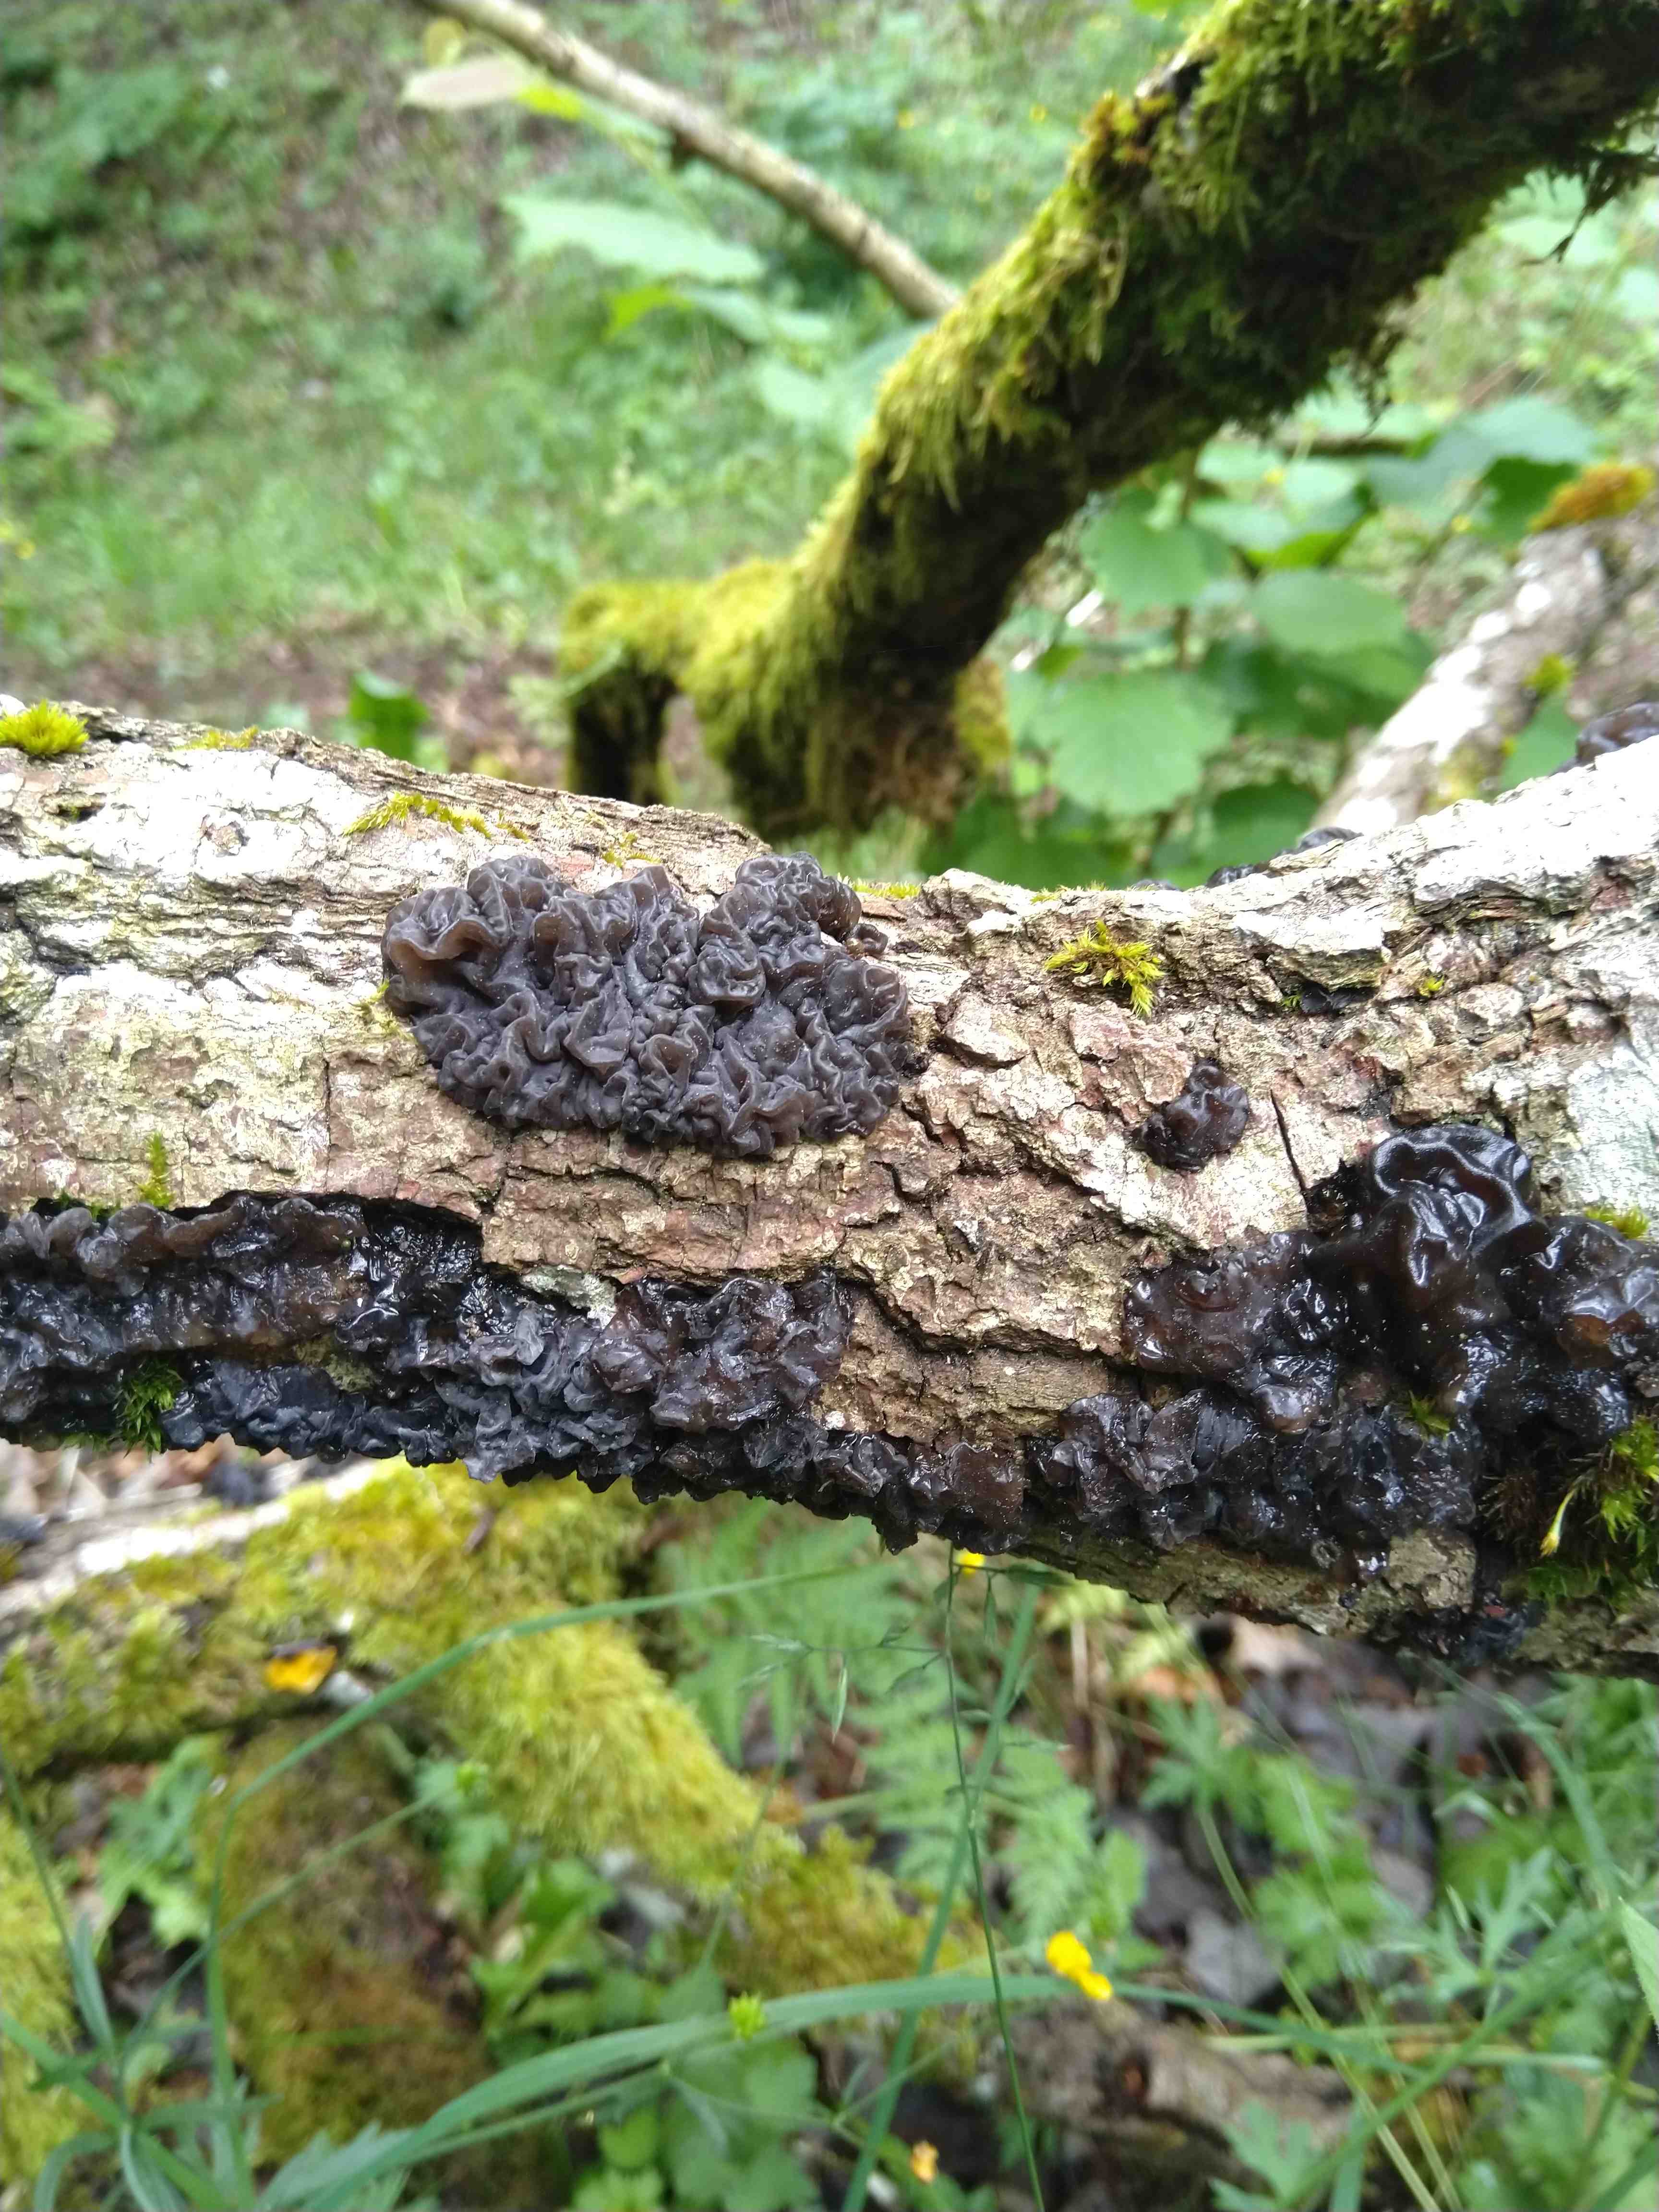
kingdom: Fungi
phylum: Basidiomycota
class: Agaricomycetes
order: Auriculariales
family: Auriculariaceae
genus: Exidia
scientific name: Exidia nigricans
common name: almindelig bævretop
